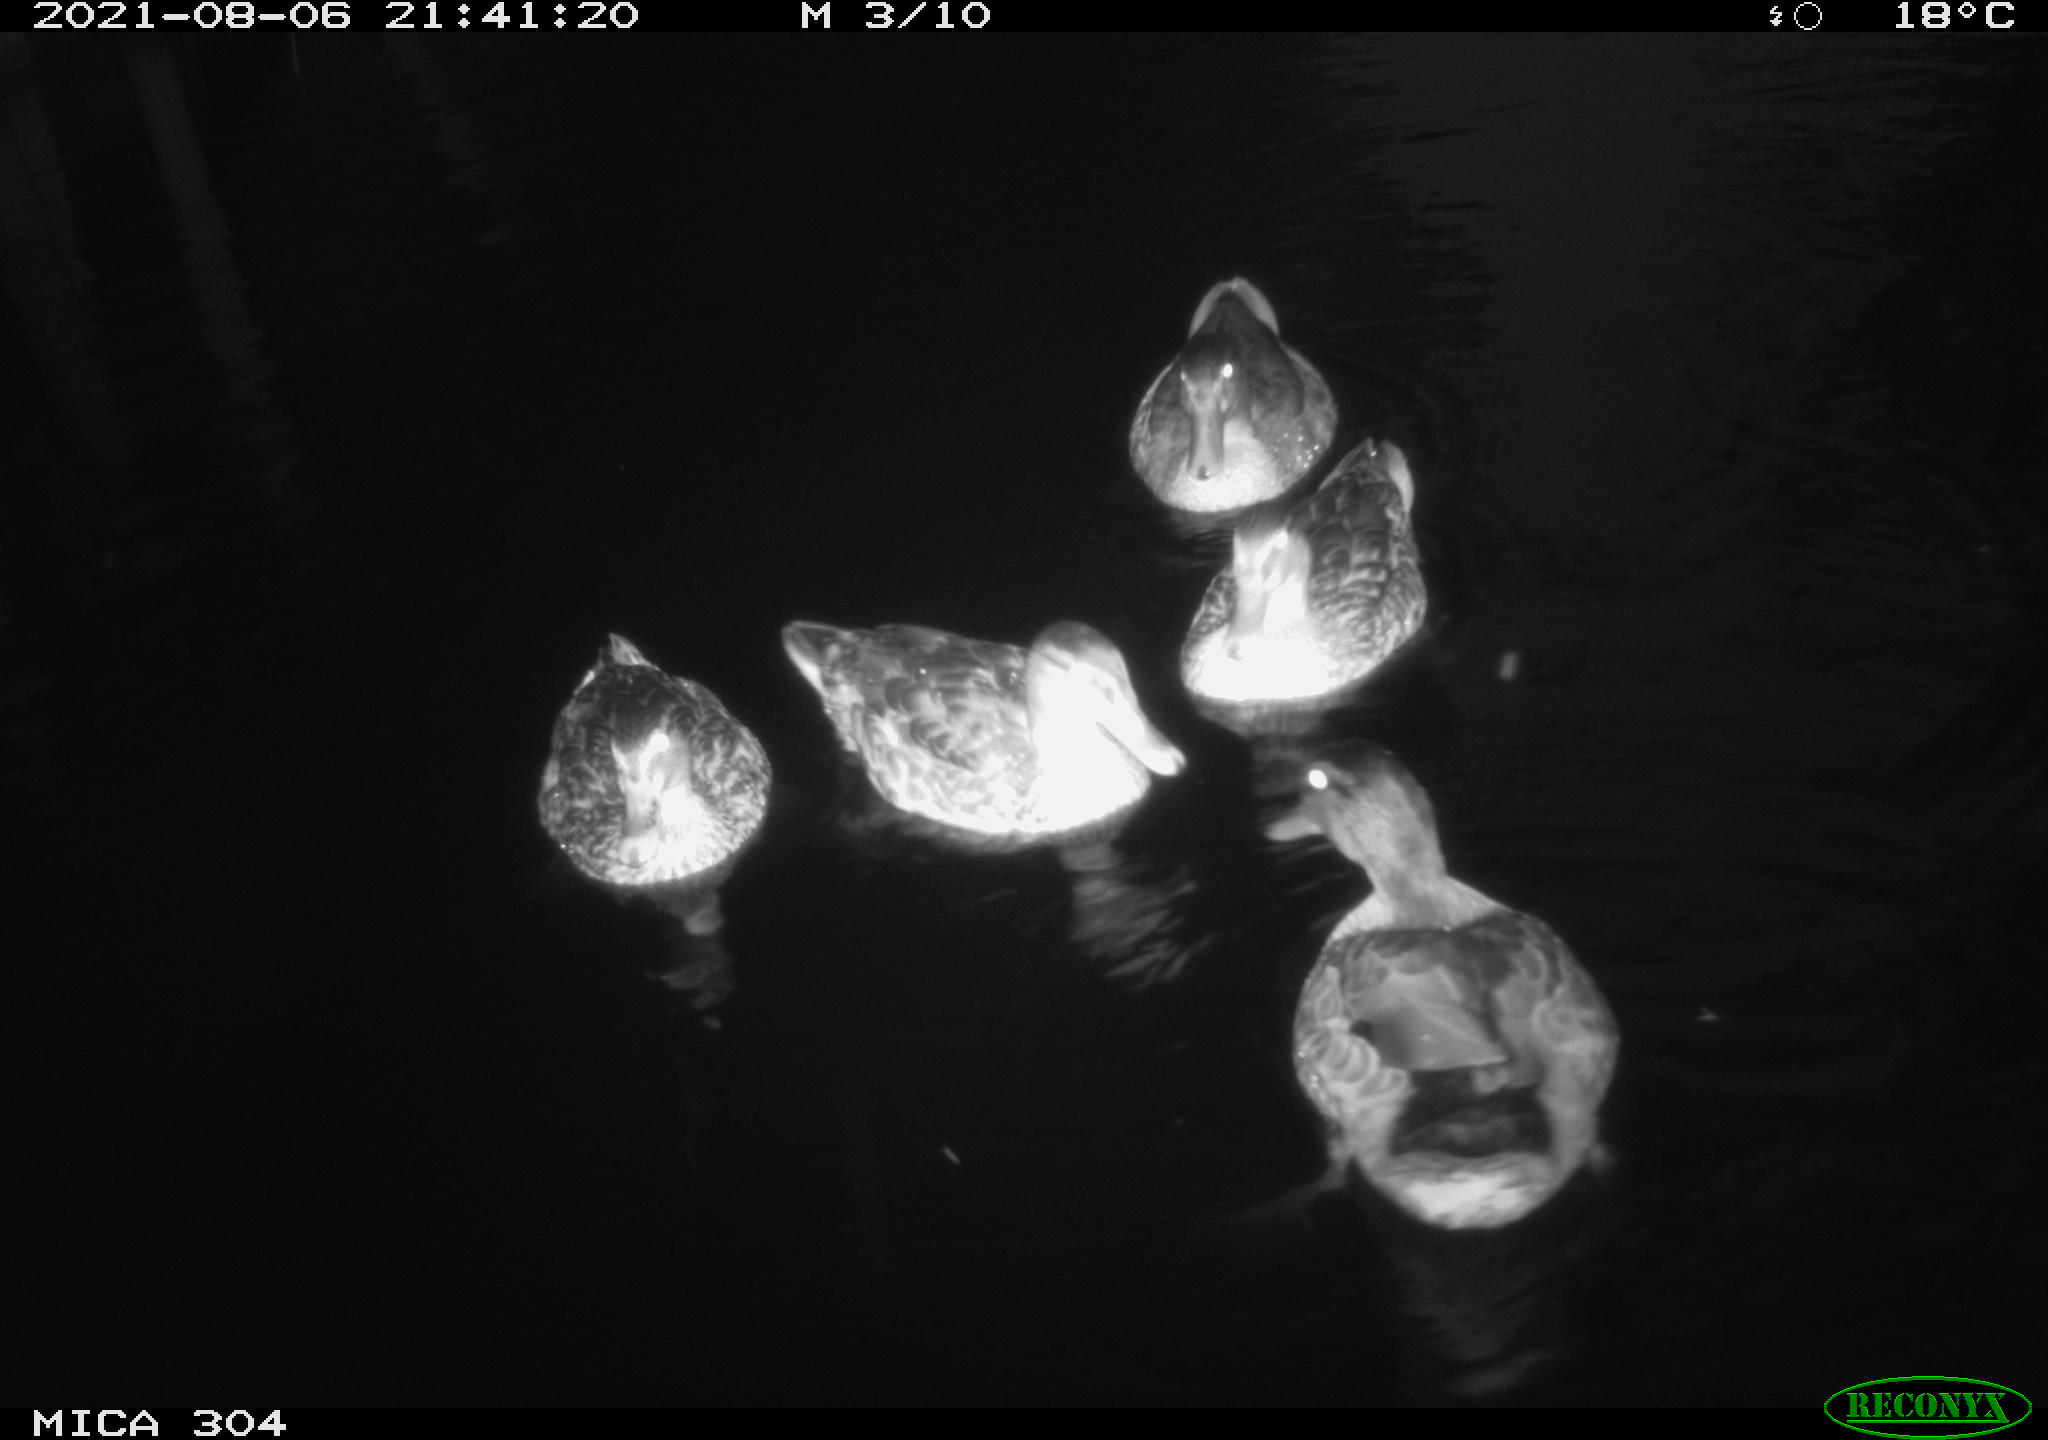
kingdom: Animalia
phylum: Chordata
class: Aves
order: Anseriformes
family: Anatidae
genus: Anas
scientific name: Anas platyrhynchos
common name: Mallard
